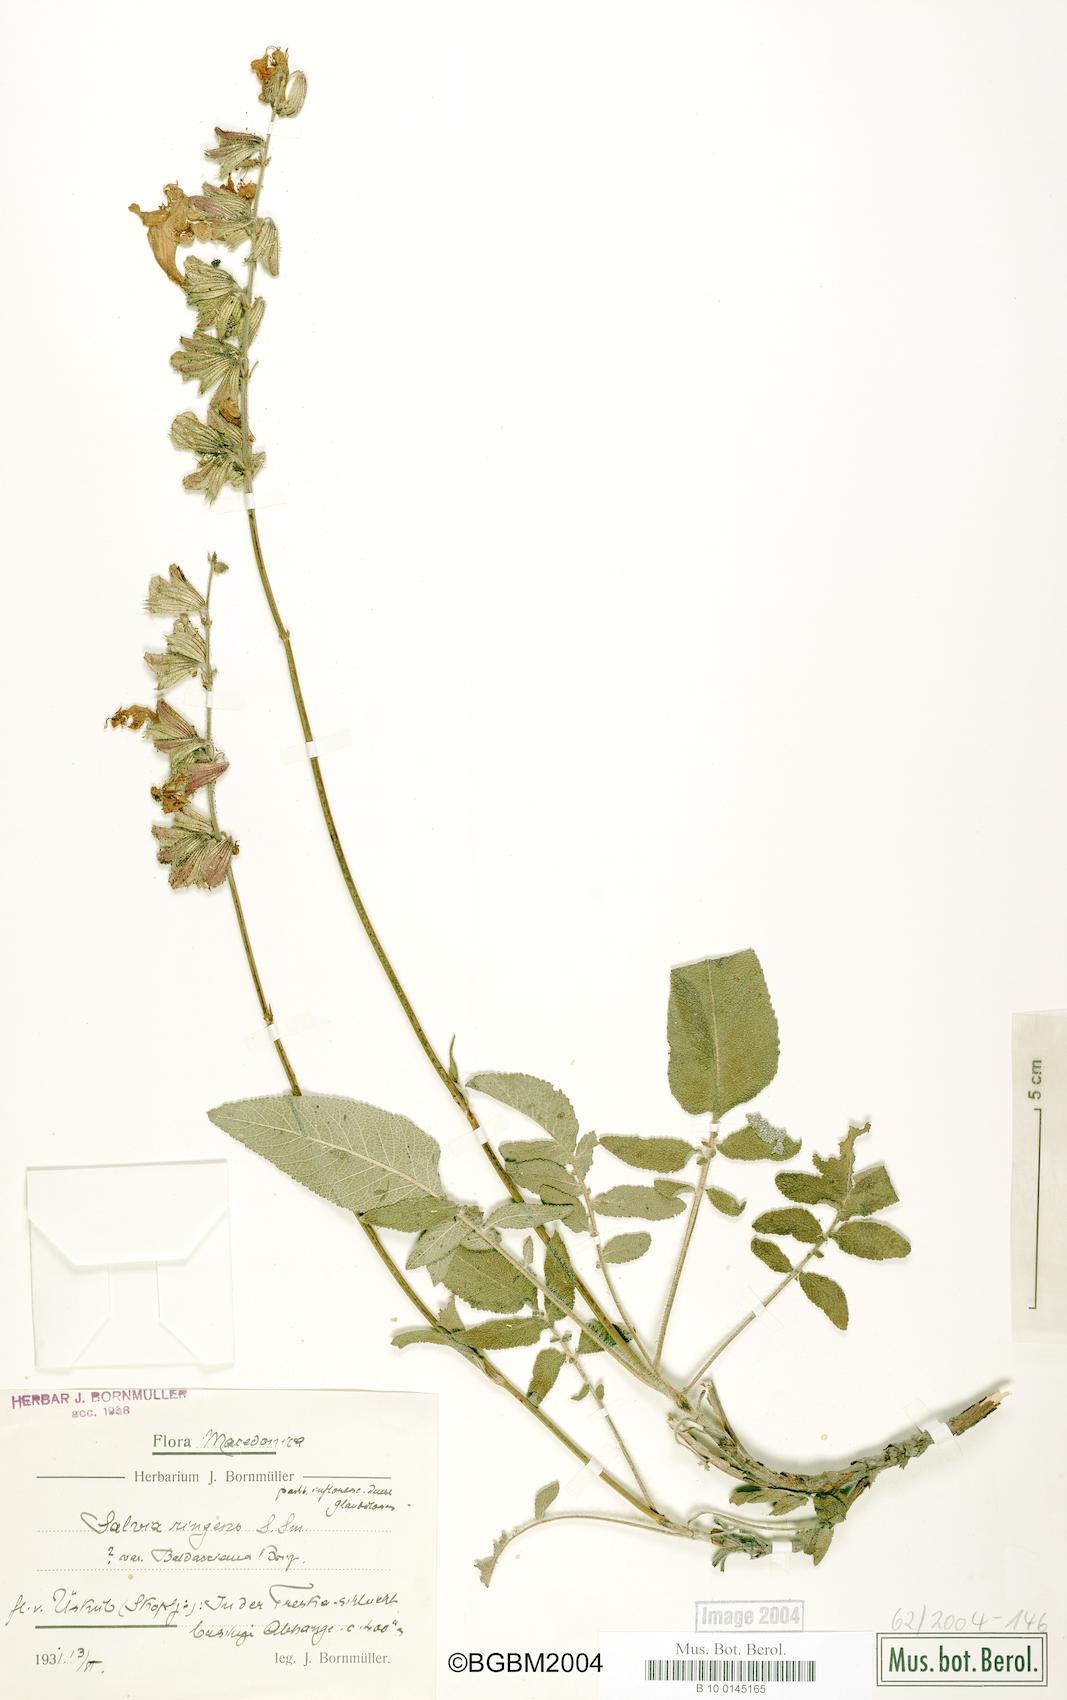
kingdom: Plantae
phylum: Tracheophyta
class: Magnoliopsida
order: Lamiales
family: Lamiaceae
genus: Salvia
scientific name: Salvia ringens
